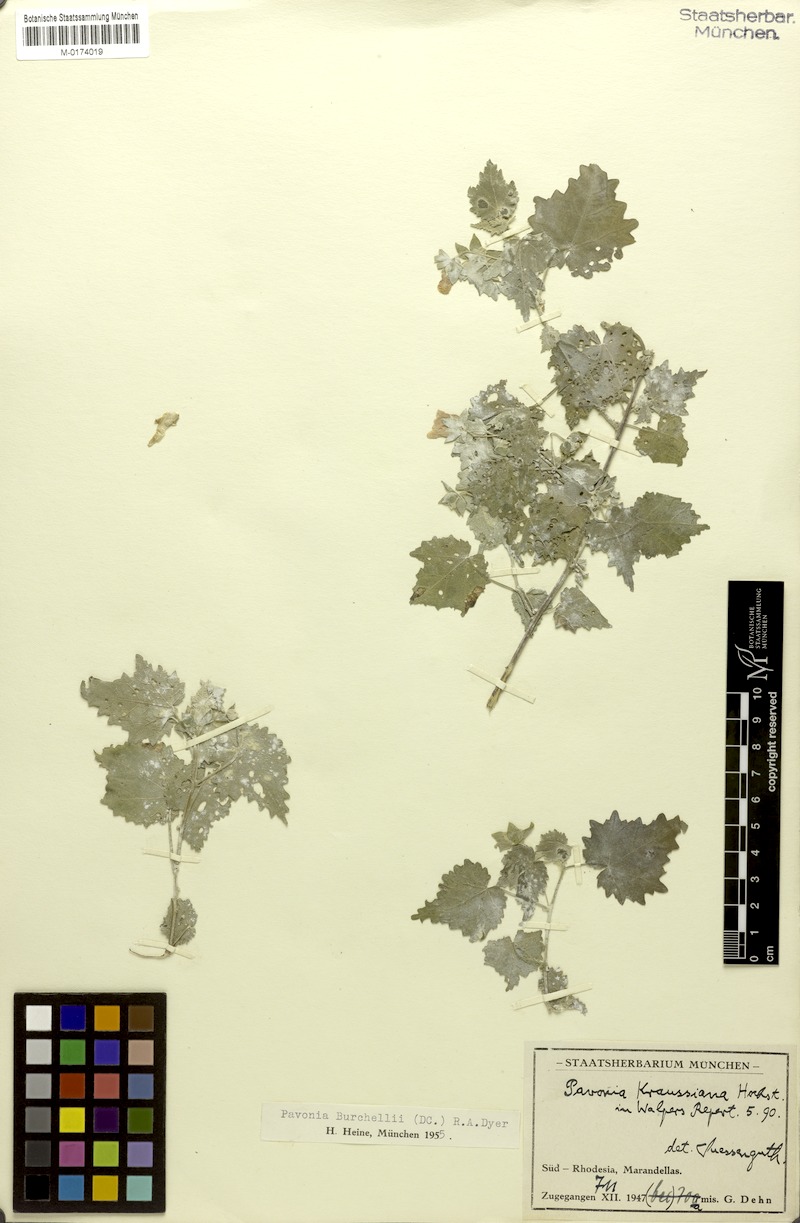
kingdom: Plantae
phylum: Tracheophyta
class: Magnoliopsida
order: Malvales
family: Malvaceae
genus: Pavonia
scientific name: Pavonia burchellii
